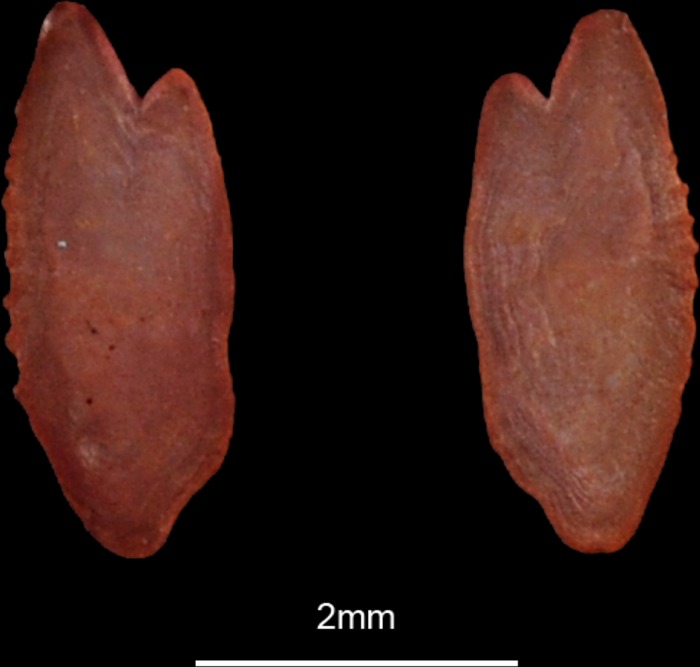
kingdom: Animalia
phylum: Chordata
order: Clupeiformes
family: Engraulidae
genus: Engraulis
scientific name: Engraulis encrasicolus
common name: European anchovy
